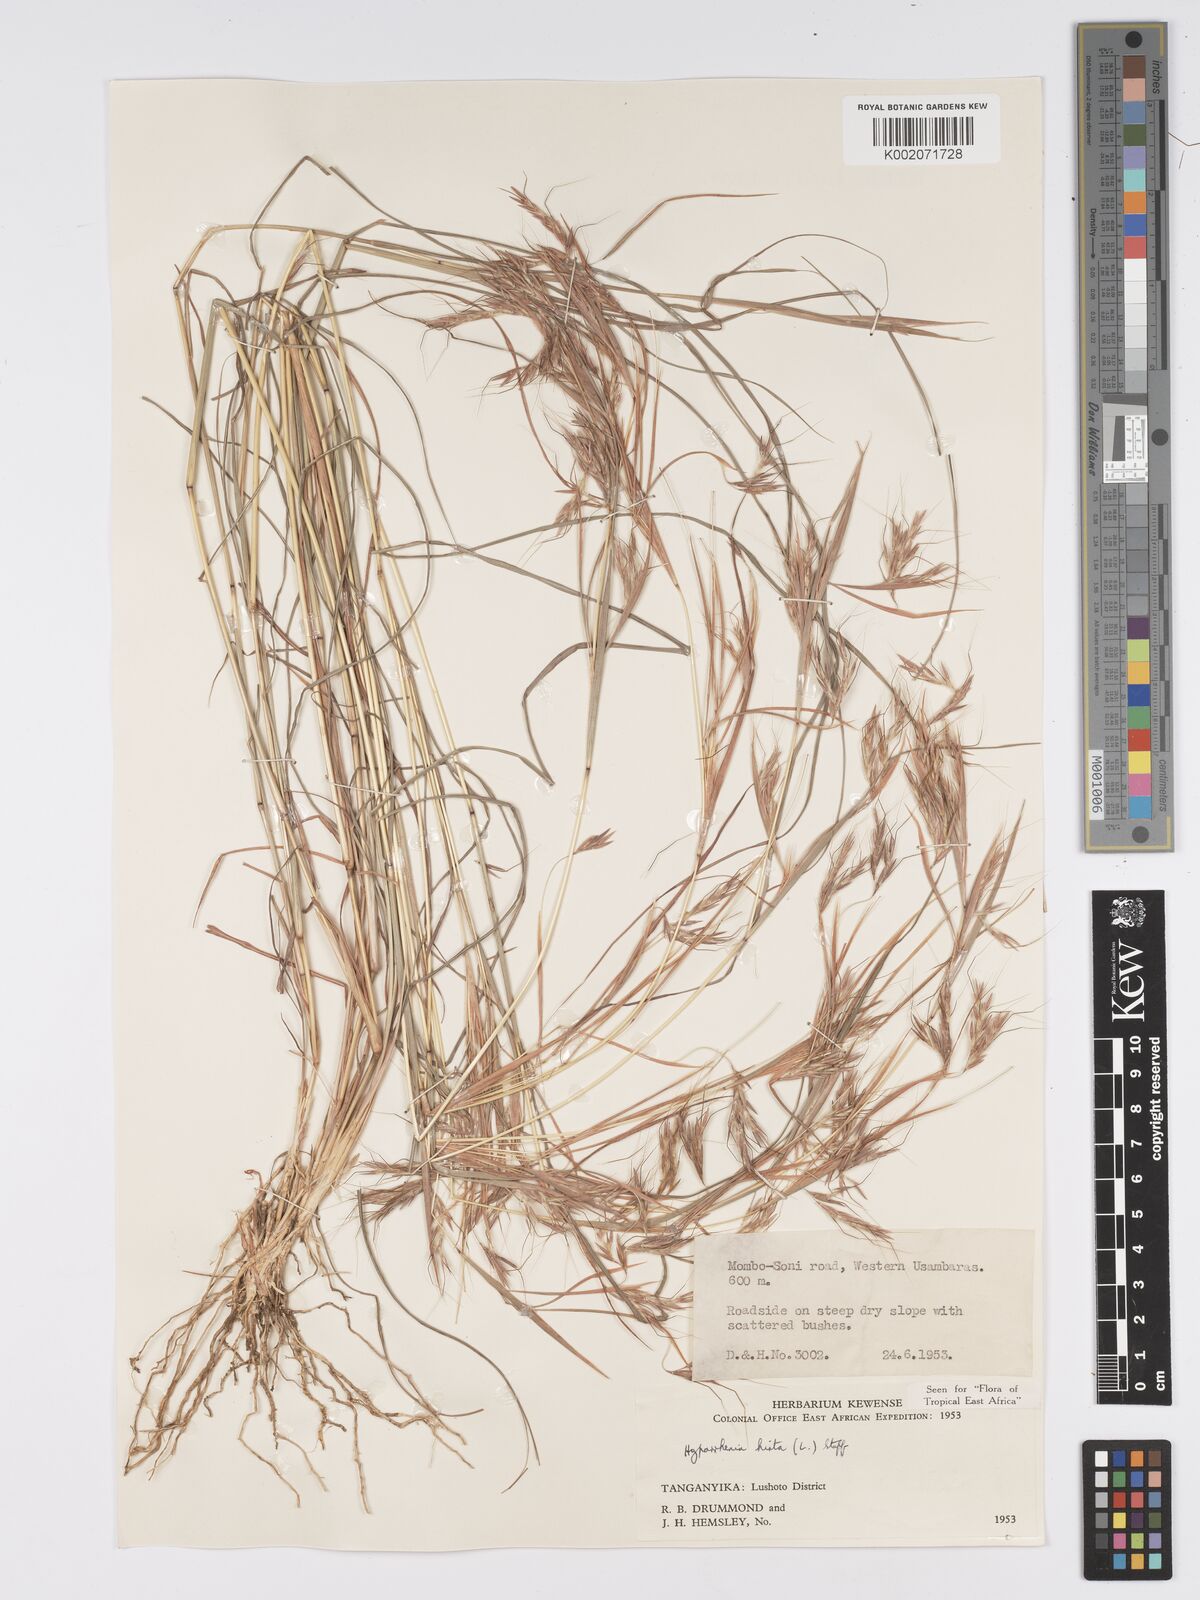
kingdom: Plantae
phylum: Tracheophyta
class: Liliopsida
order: Poales
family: Poaceae
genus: Hyparrhenia
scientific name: Hyparrhenia hirta
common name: Thatching grass
